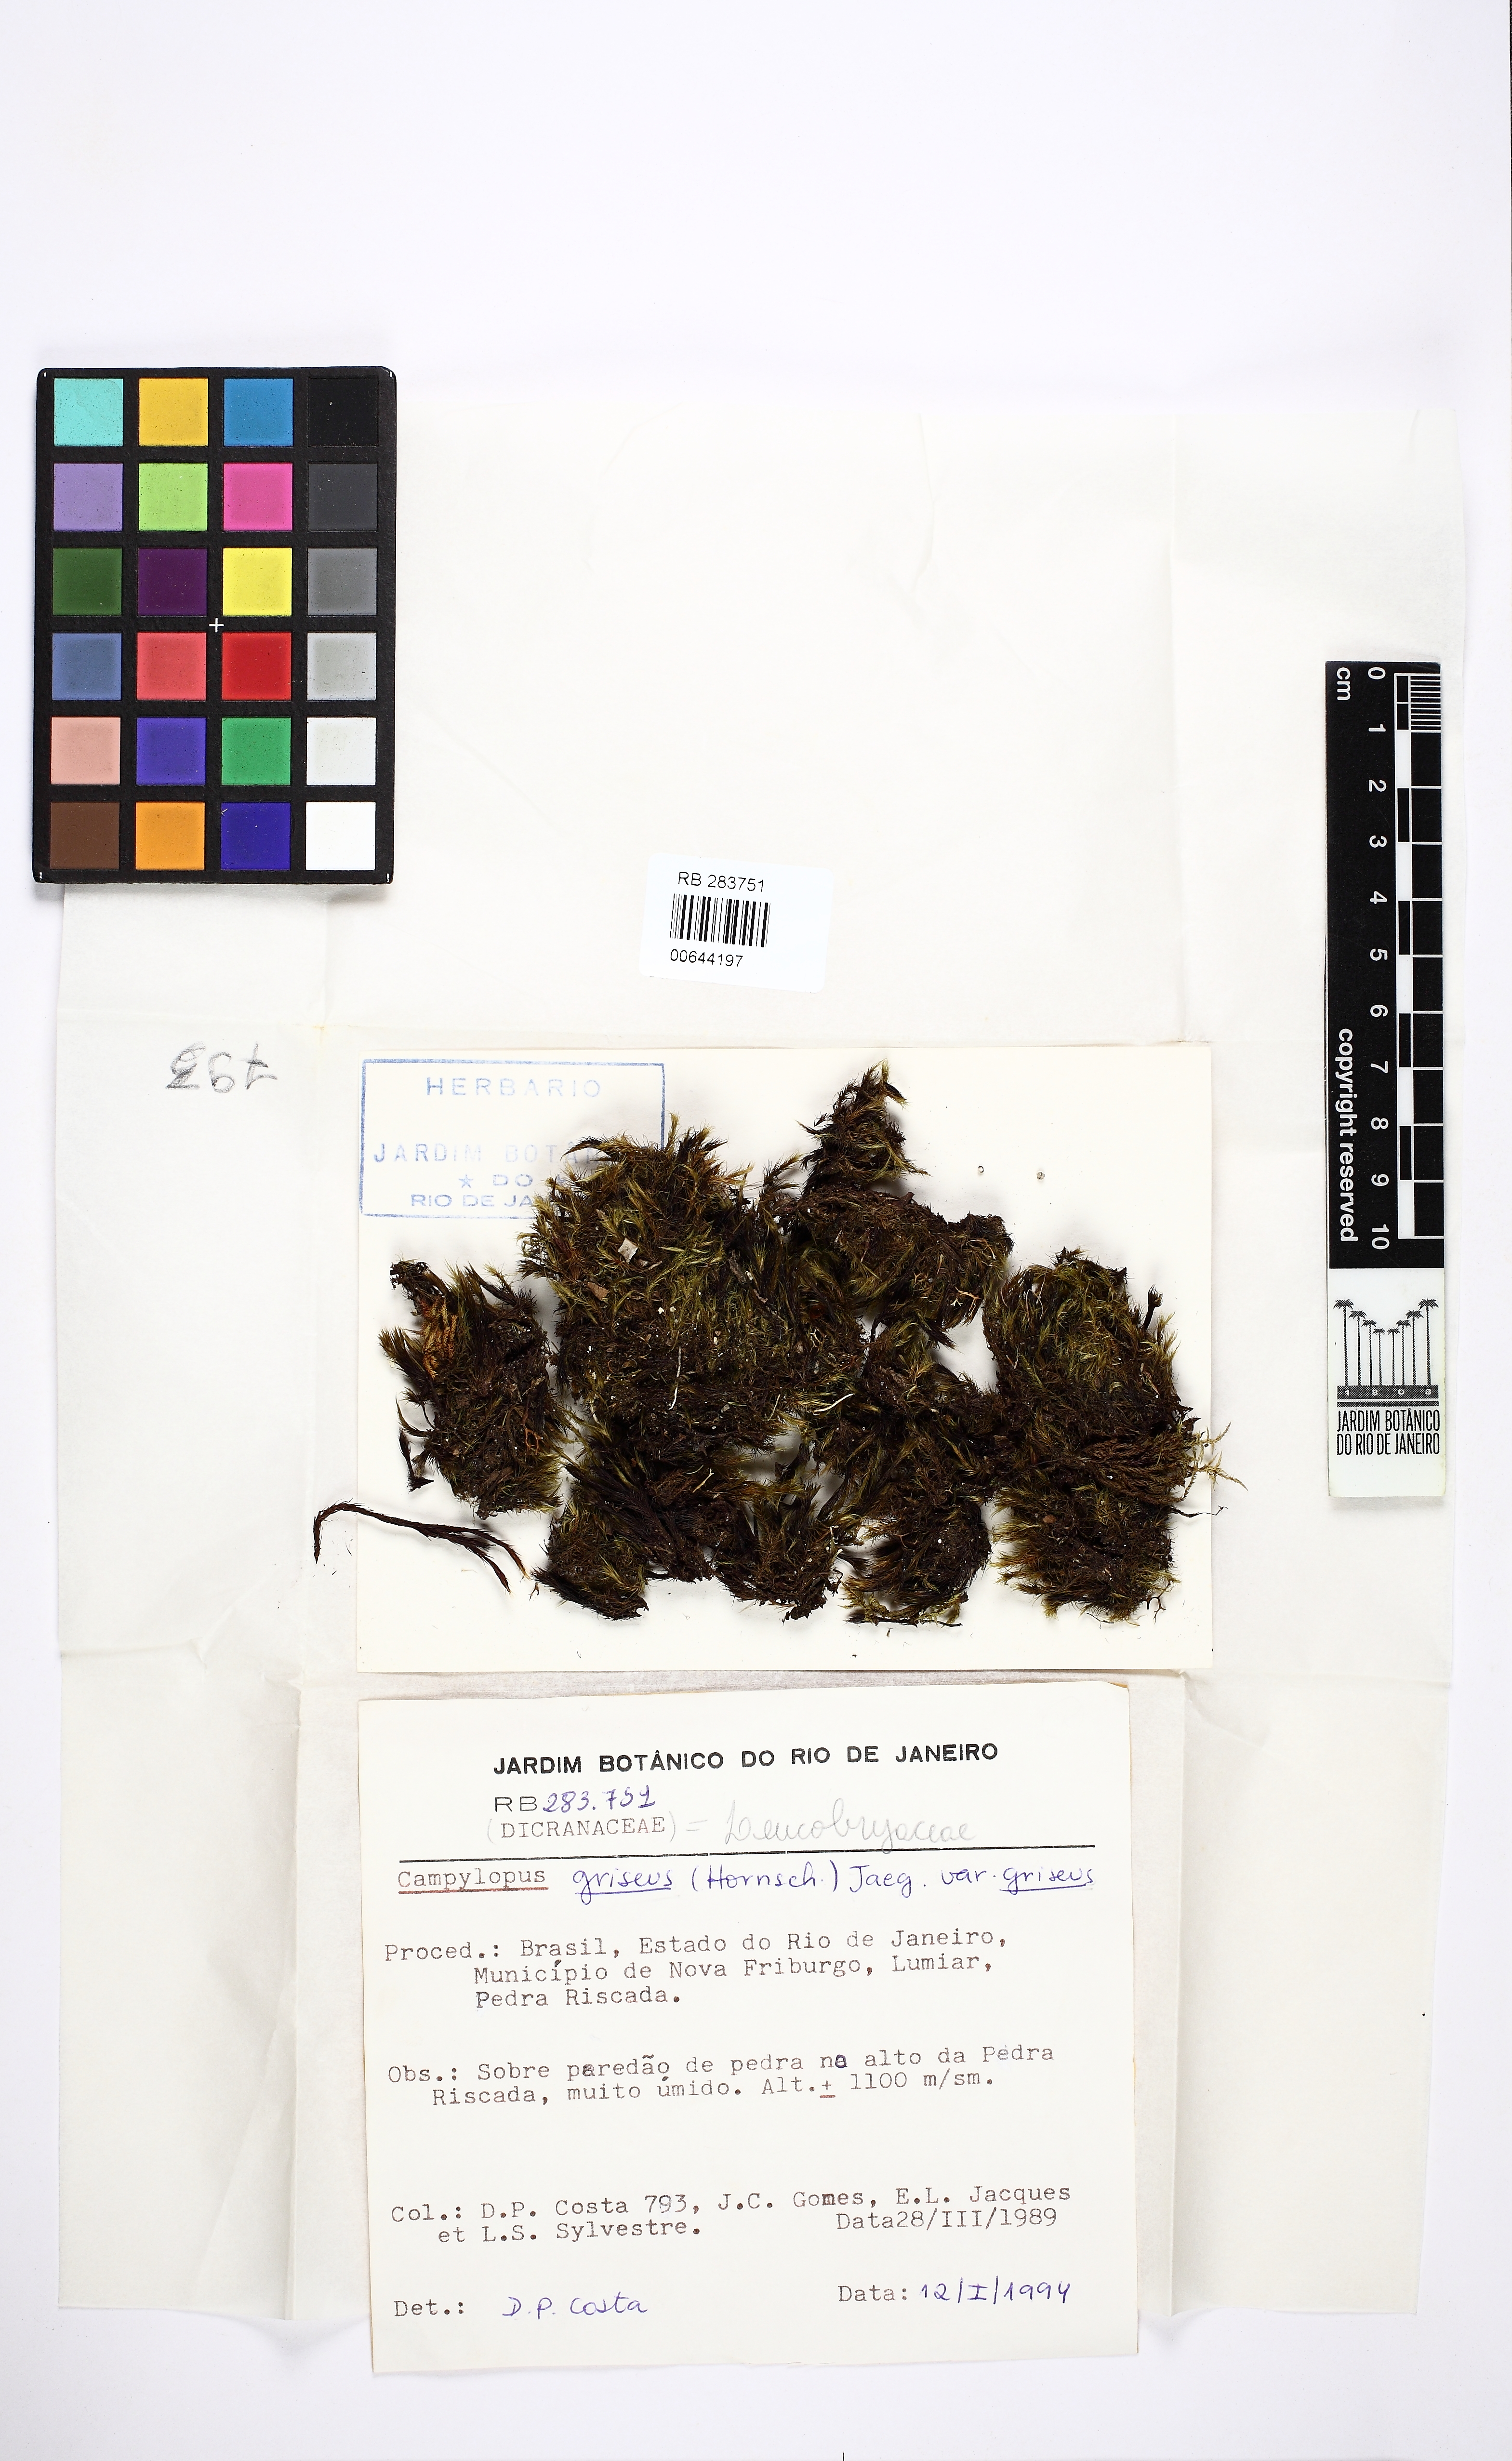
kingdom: Plantae
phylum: Bryophyta
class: Bryopsida
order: Dicranales
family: Leucobryaceae
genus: Campylopus
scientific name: Campylopus griseus
